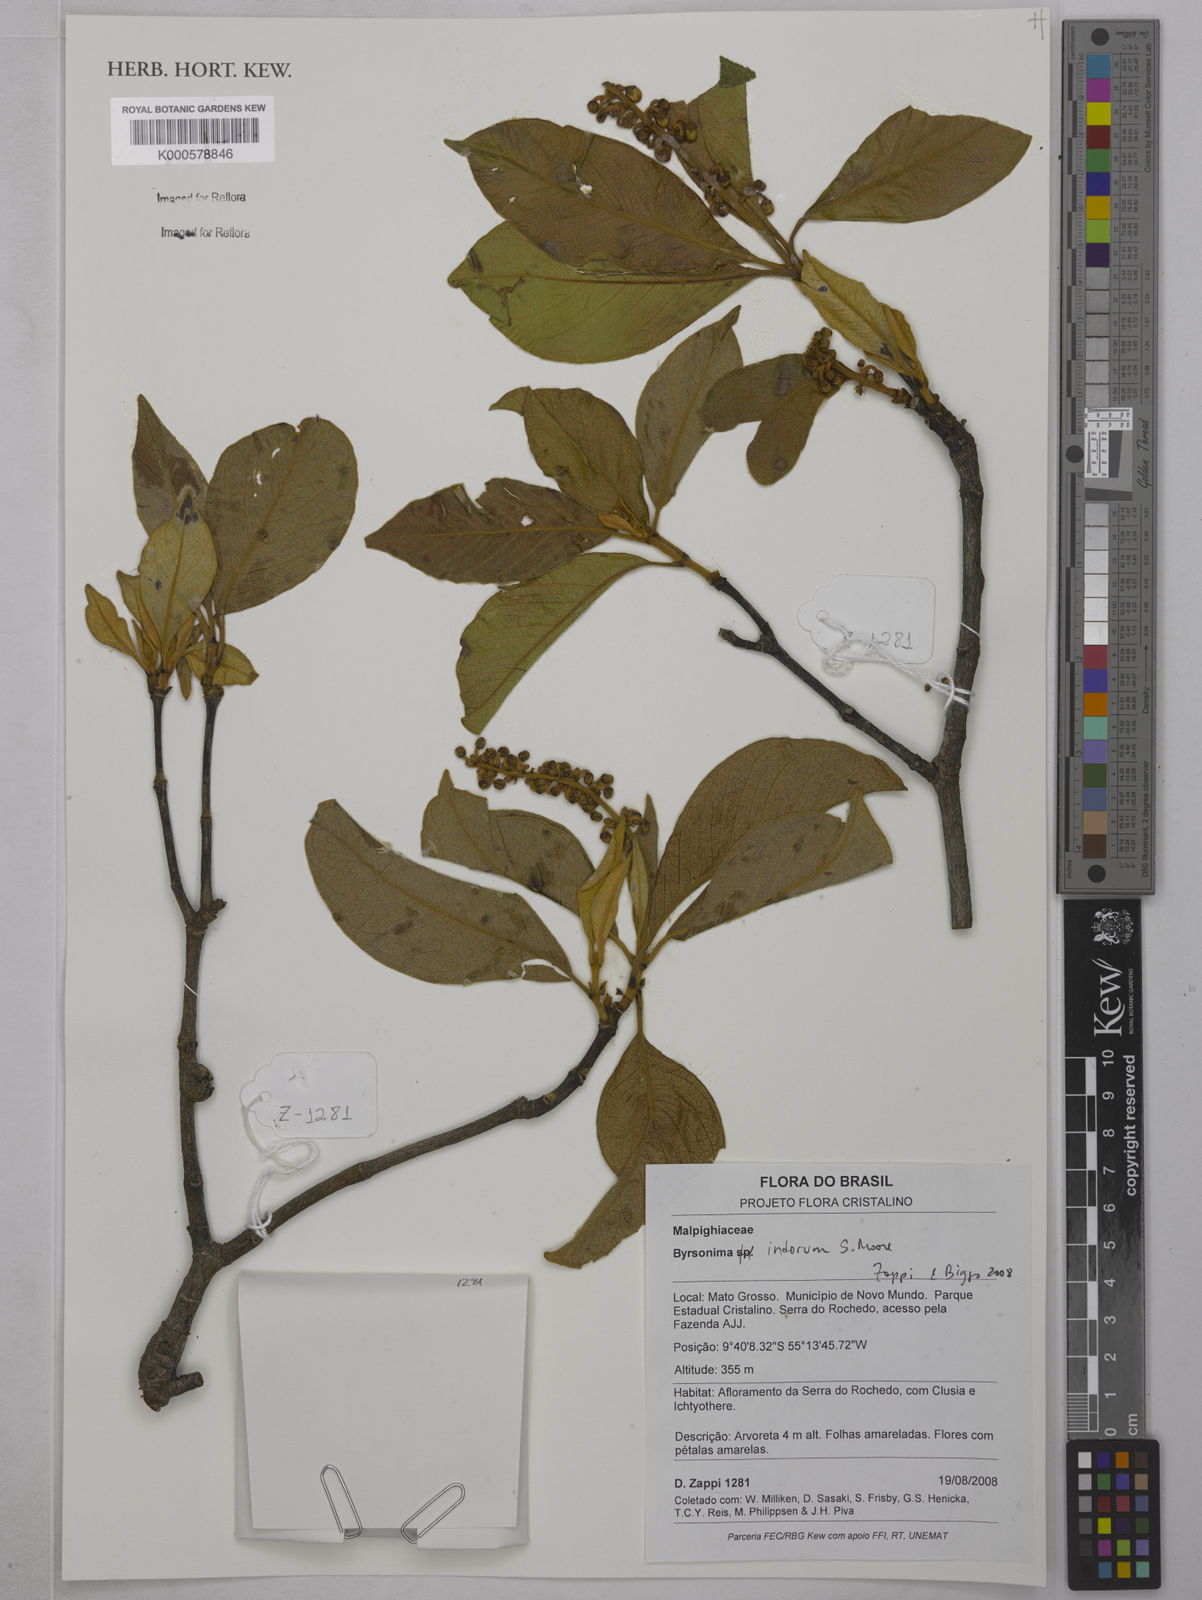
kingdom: Plantae
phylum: Tracheophyta
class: Magnoliopsida
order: Malpighiales
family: Malpighiaceae
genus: Byrsonima
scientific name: Byrsonima arthropoda
